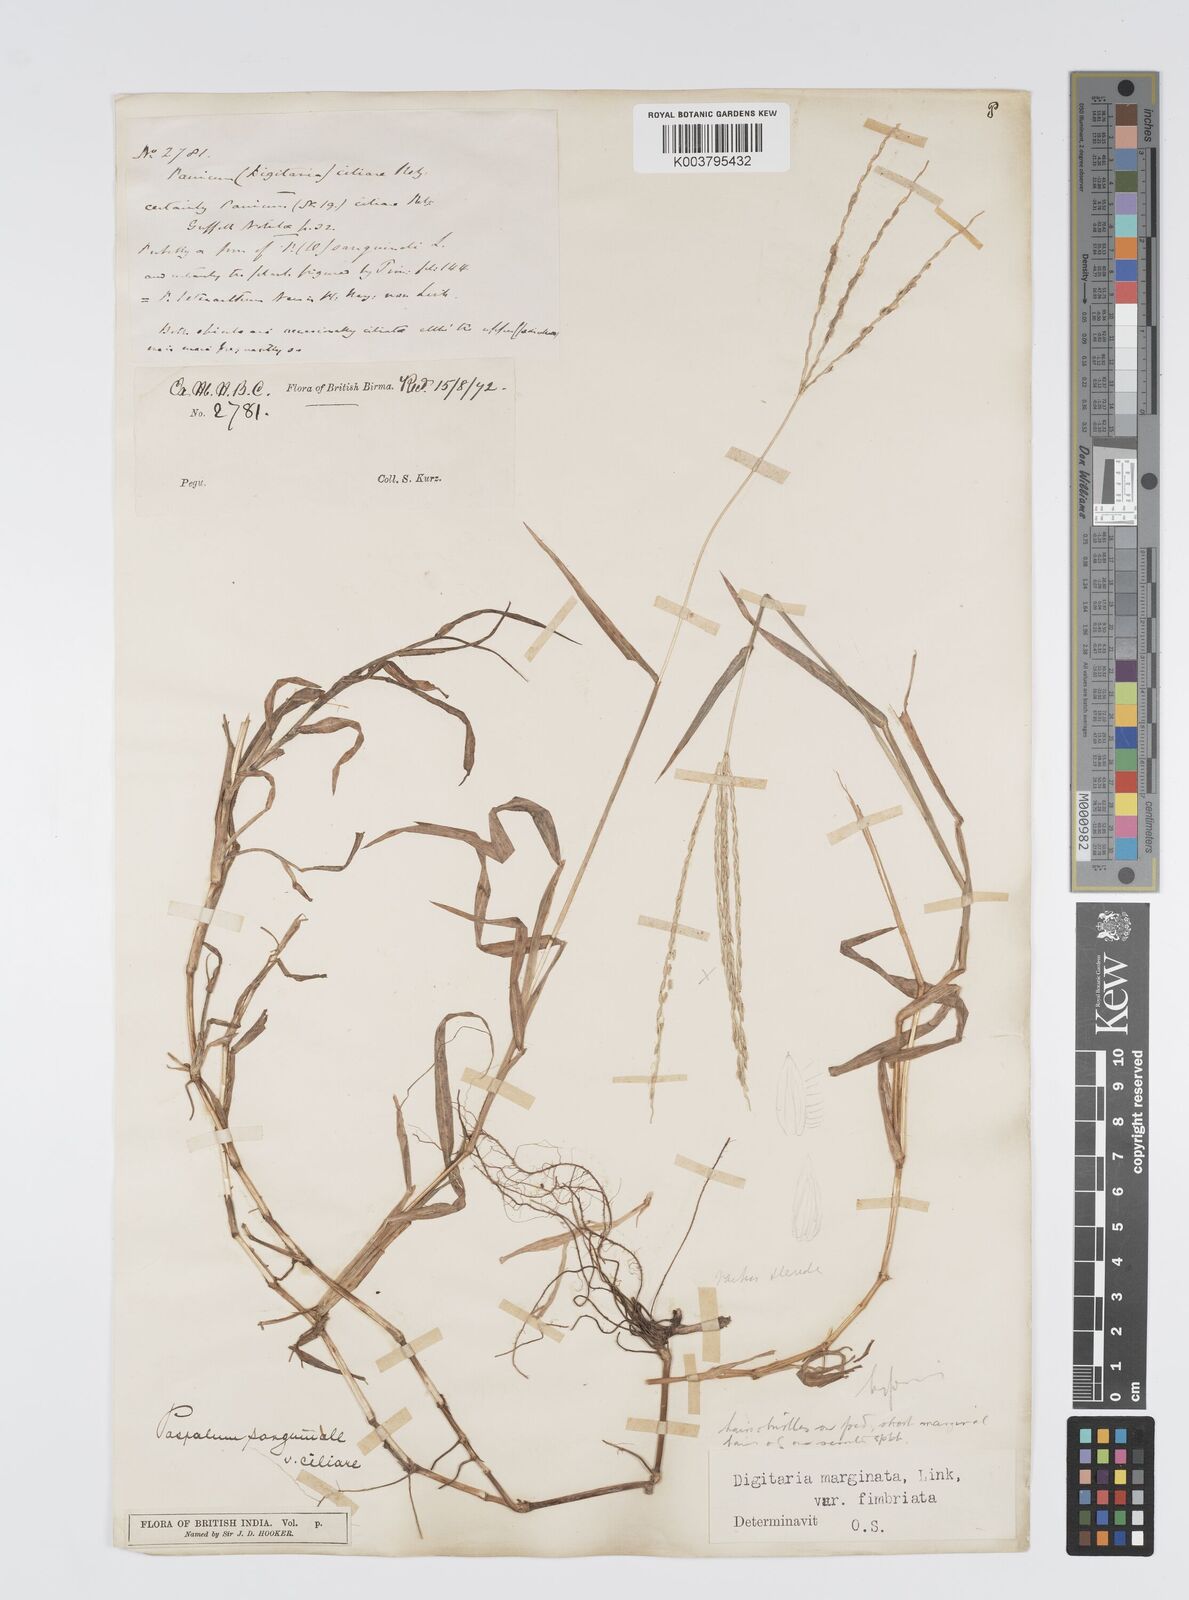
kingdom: Plantae
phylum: Tracheophyta
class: Liliopsida
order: Poales
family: Poaceae
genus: Digitaria
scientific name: Digitaria bicornis
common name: Asian crabgrass
